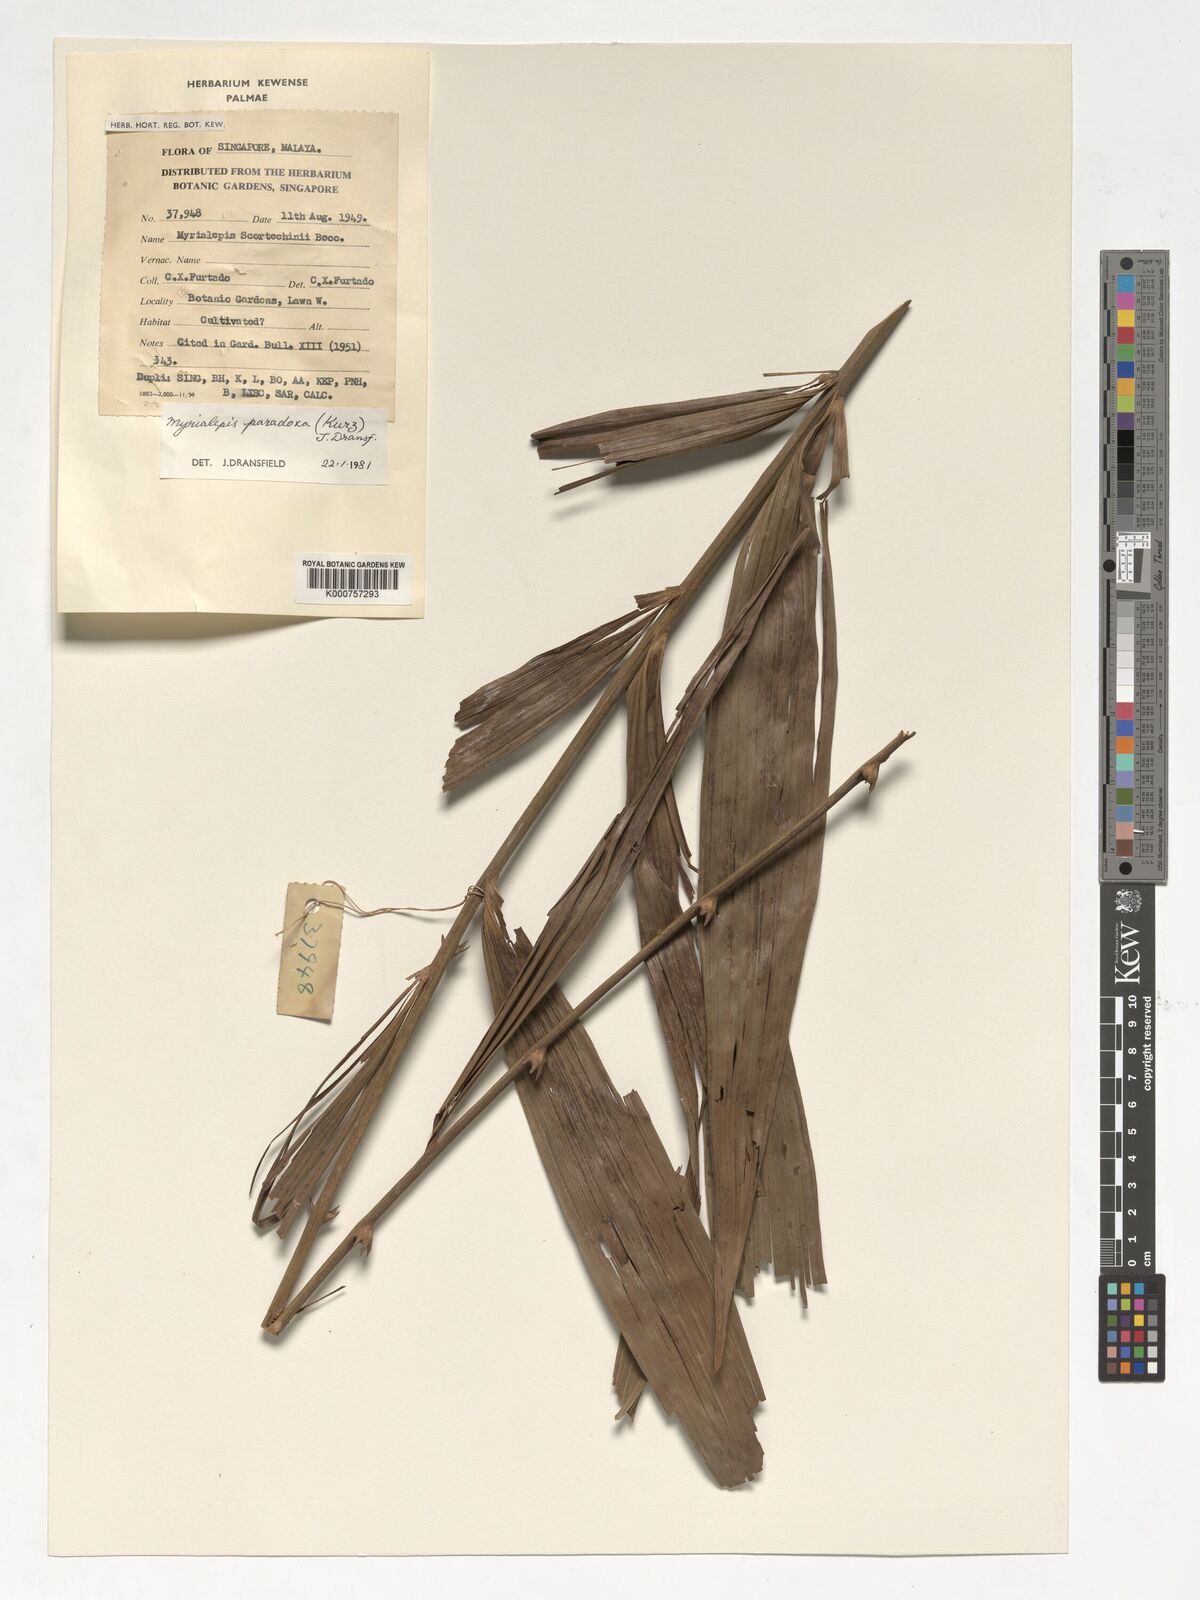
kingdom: Plantae
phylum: Tracheophyta
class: Liliopsida
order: Arecales
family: Arecaceae
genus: Myrialepis
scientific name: Myrialepis paradoxa
